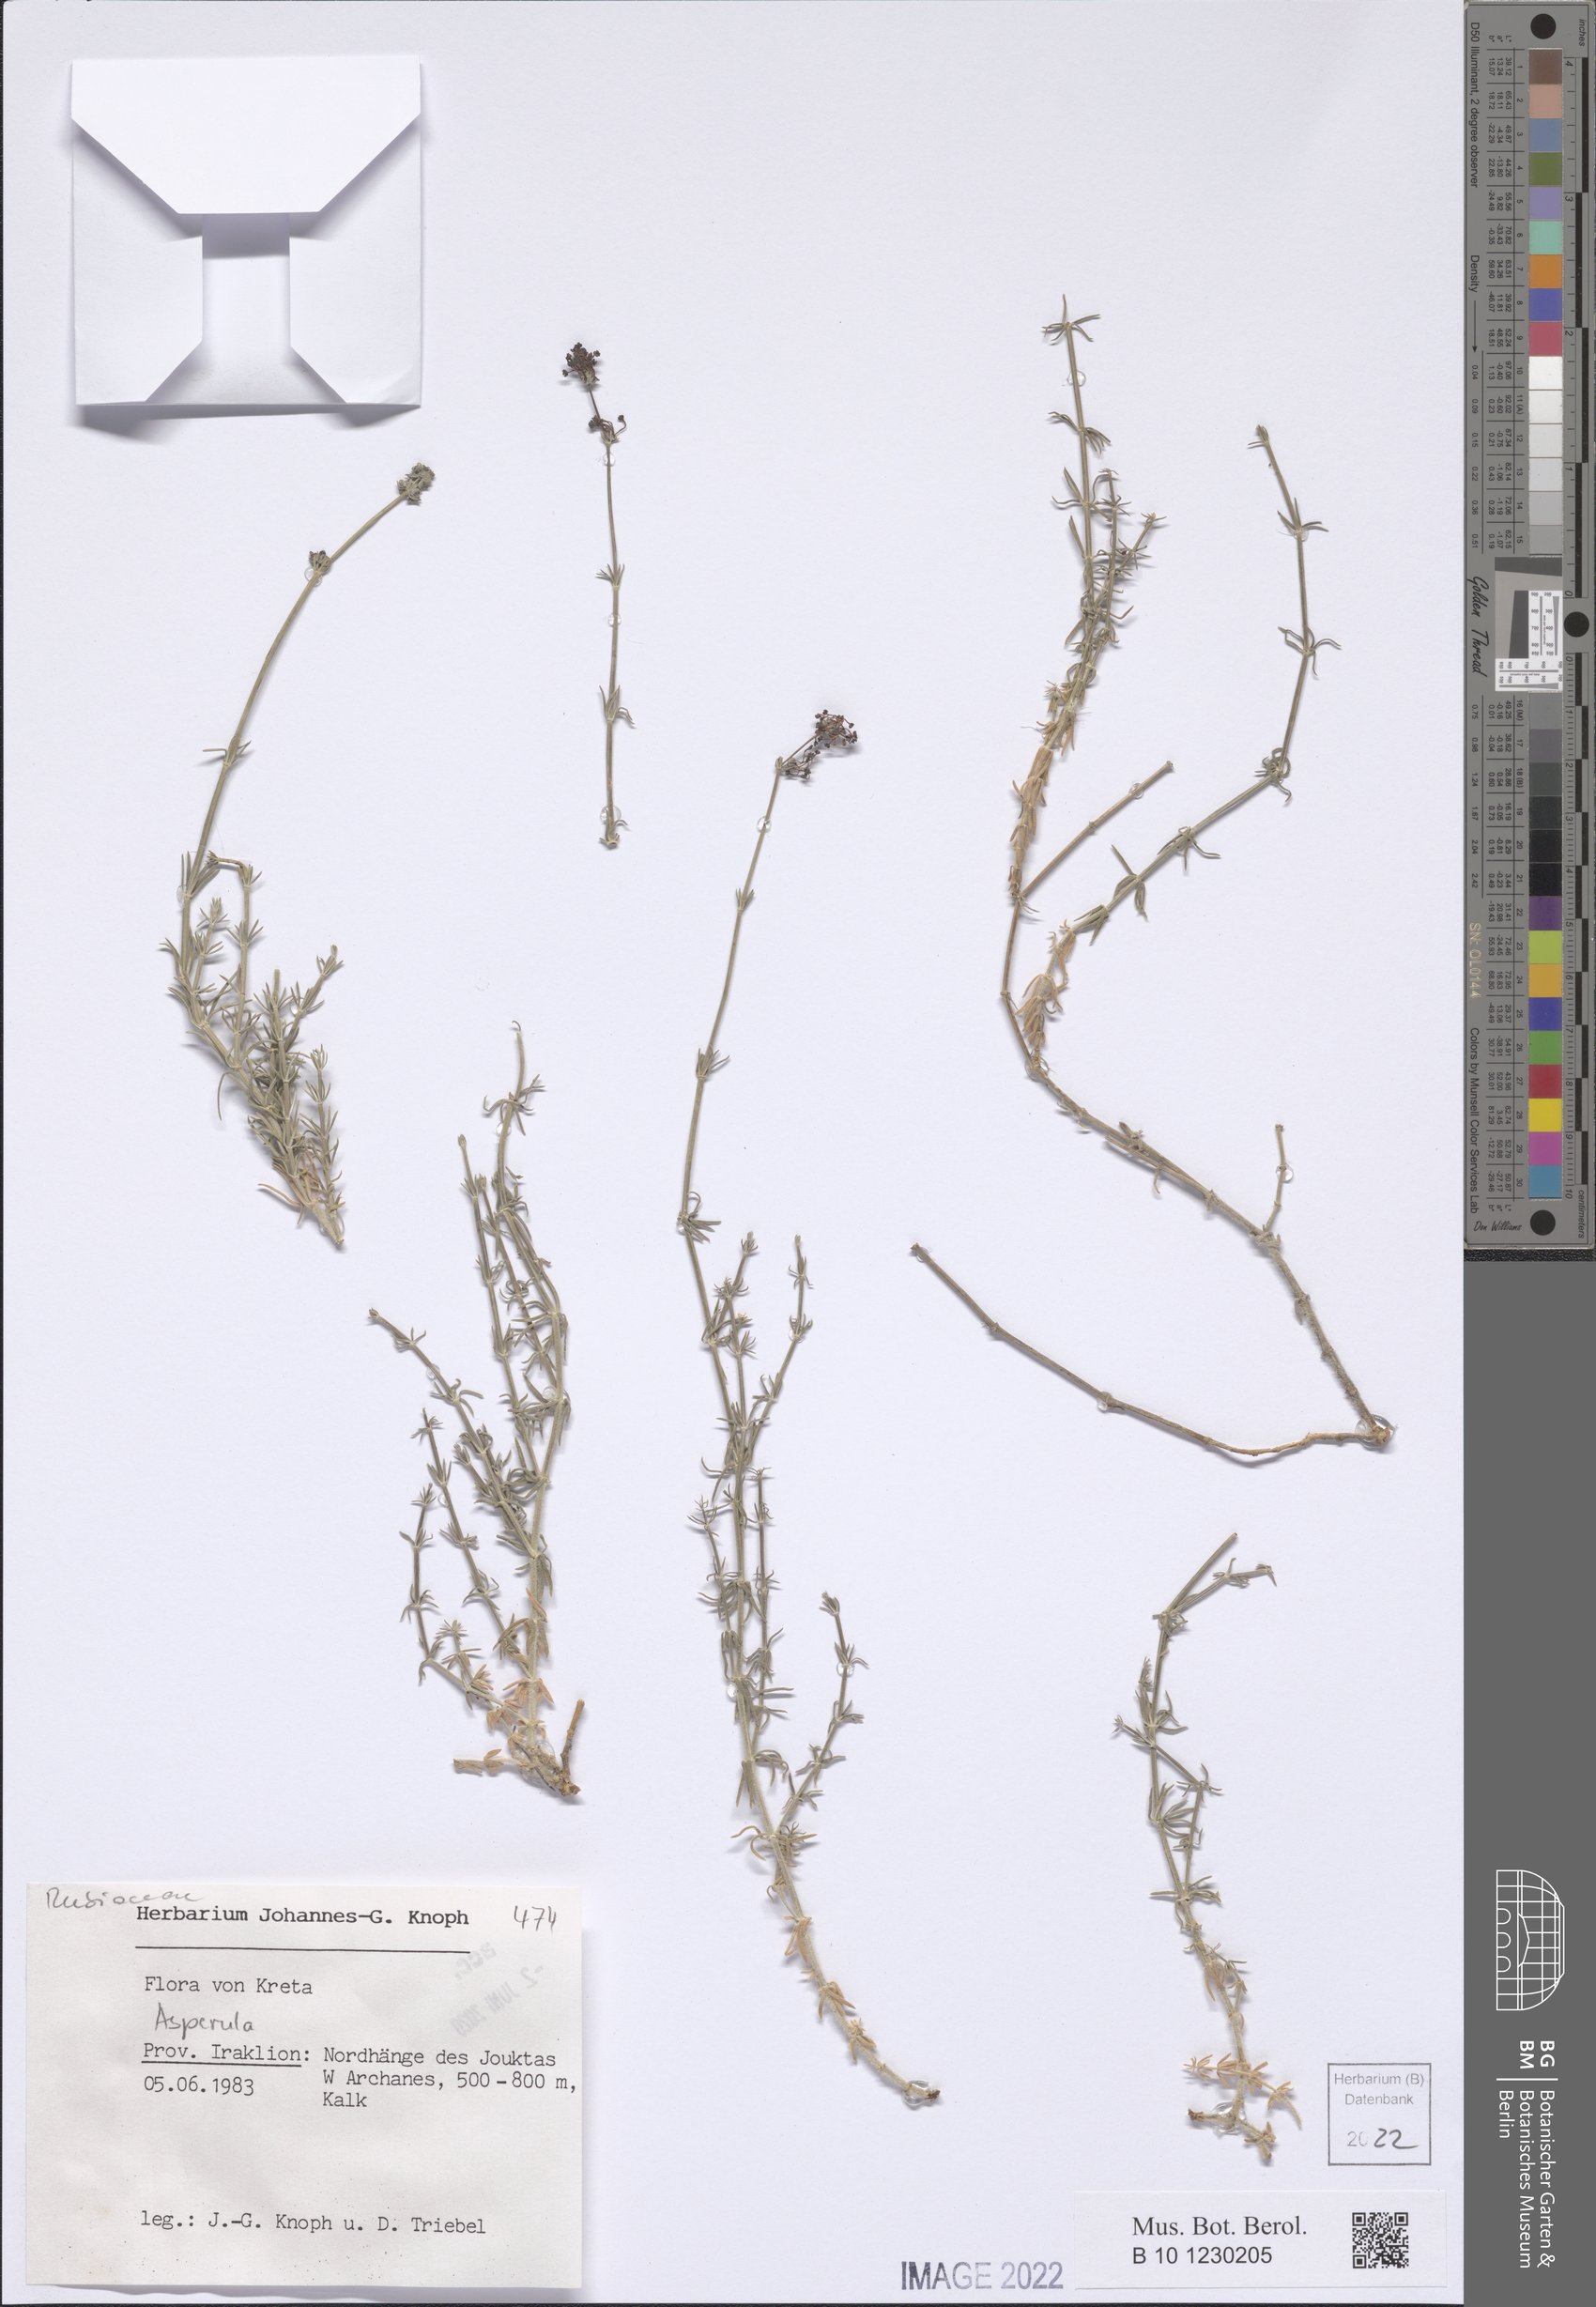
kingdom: Plantae
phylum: Tracheophyta
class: Magnoliopsida
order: Gentianales
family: Rubiaceae
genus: Asperula
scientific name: Asperula
